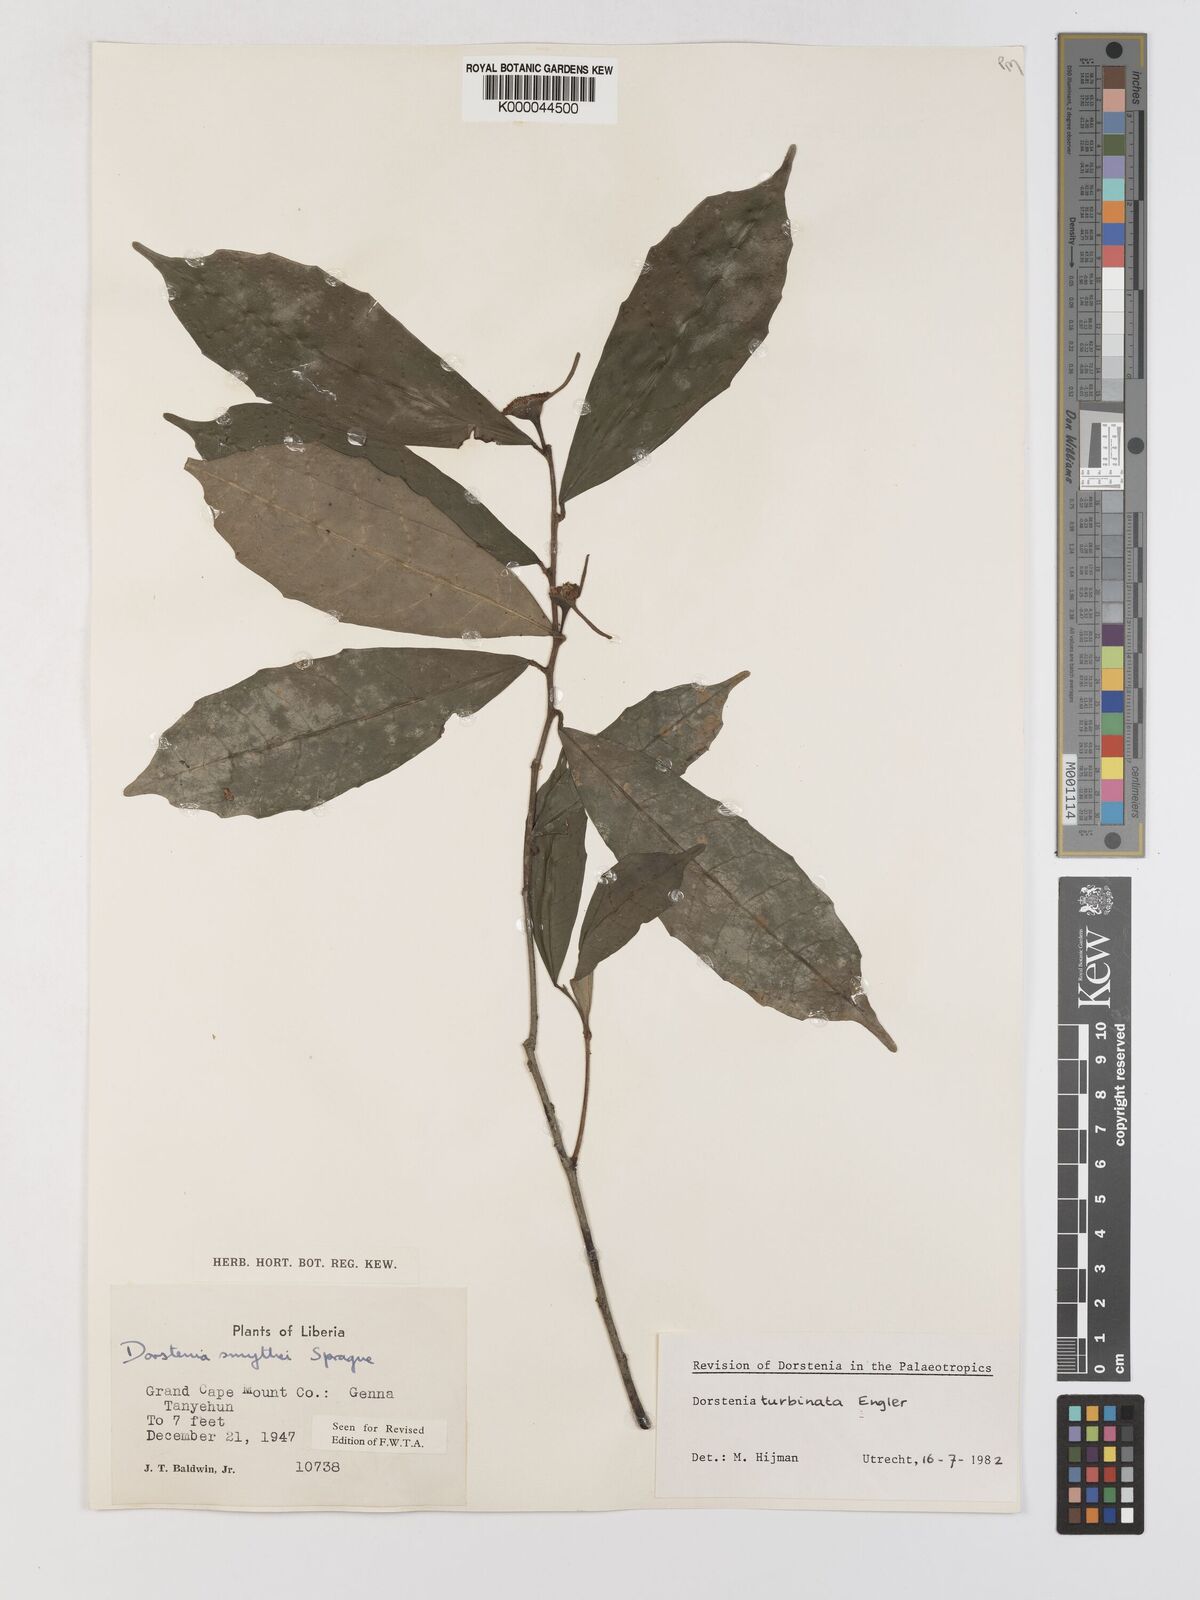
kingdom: Plantae
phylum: Tracheophyta
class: Magnoliopsida
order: Rosales
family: Moraceae
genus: Hijmania
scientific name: Hijmania turbinata
